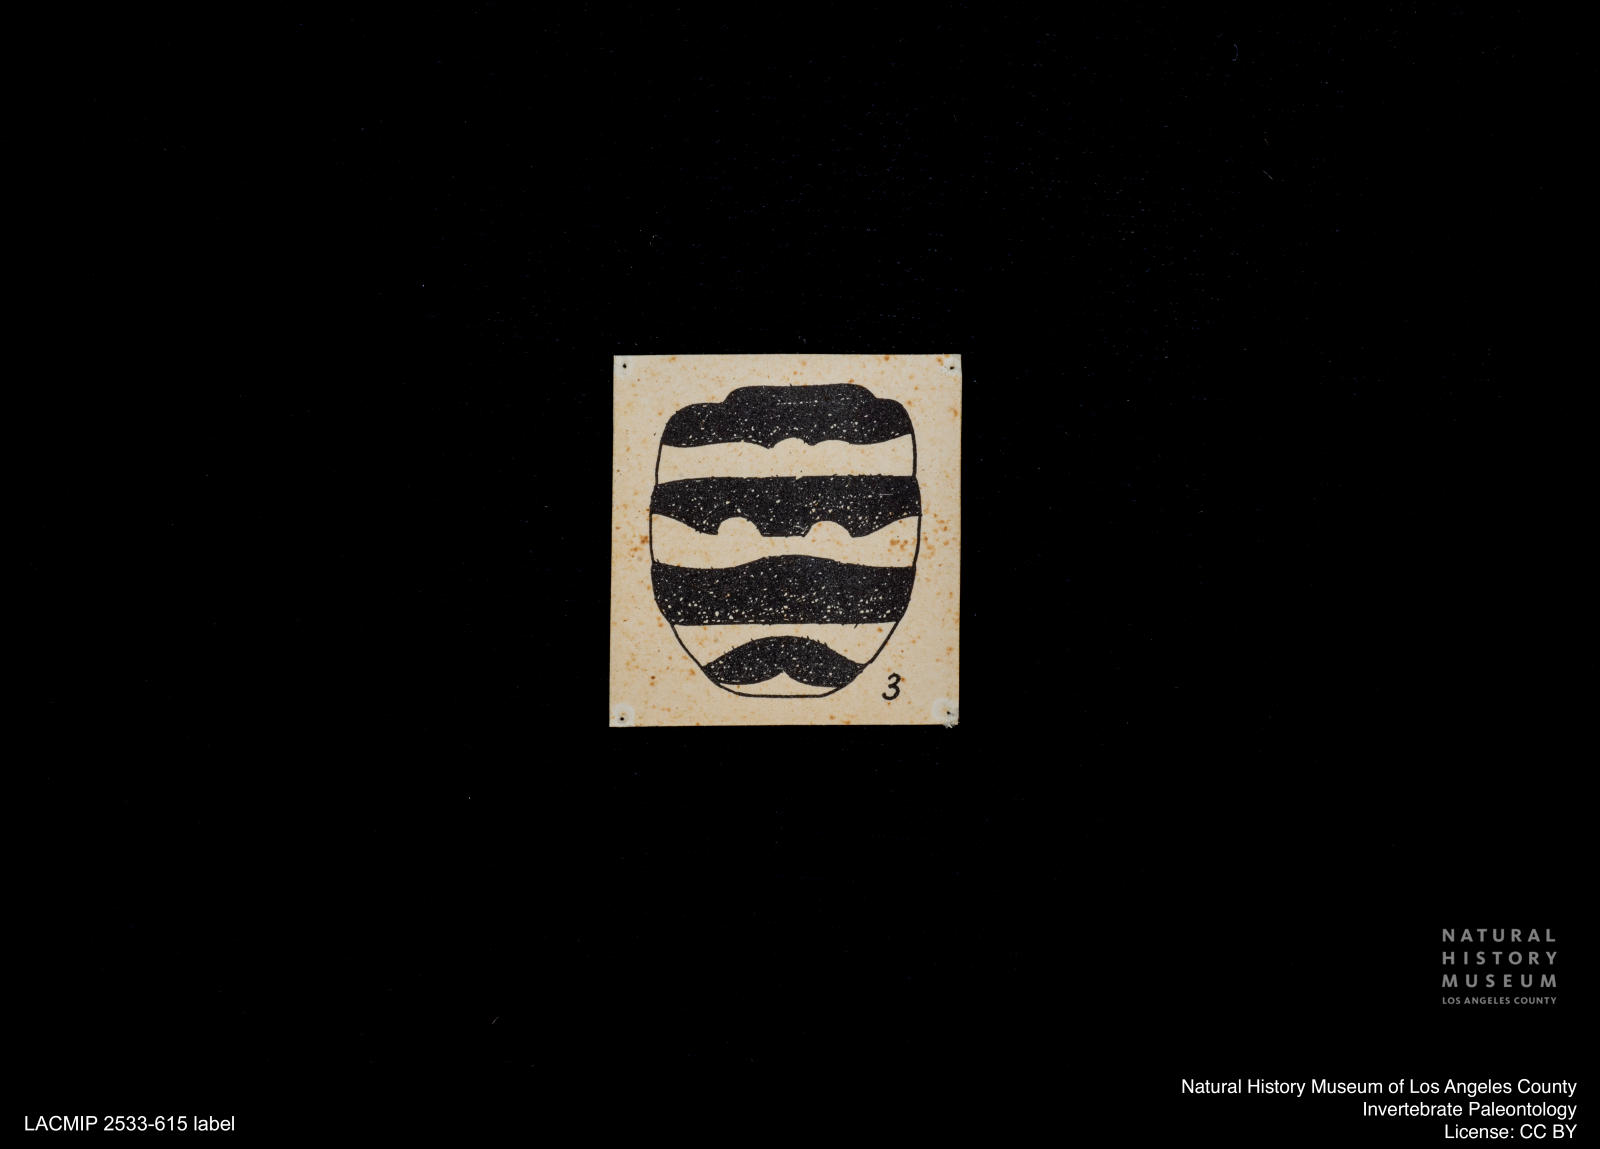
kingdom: Animalia
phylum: Arthropoda
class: Insecta
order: Diptera
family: Stratiomyidae
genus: Odontomyia
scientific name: Odontomyia
